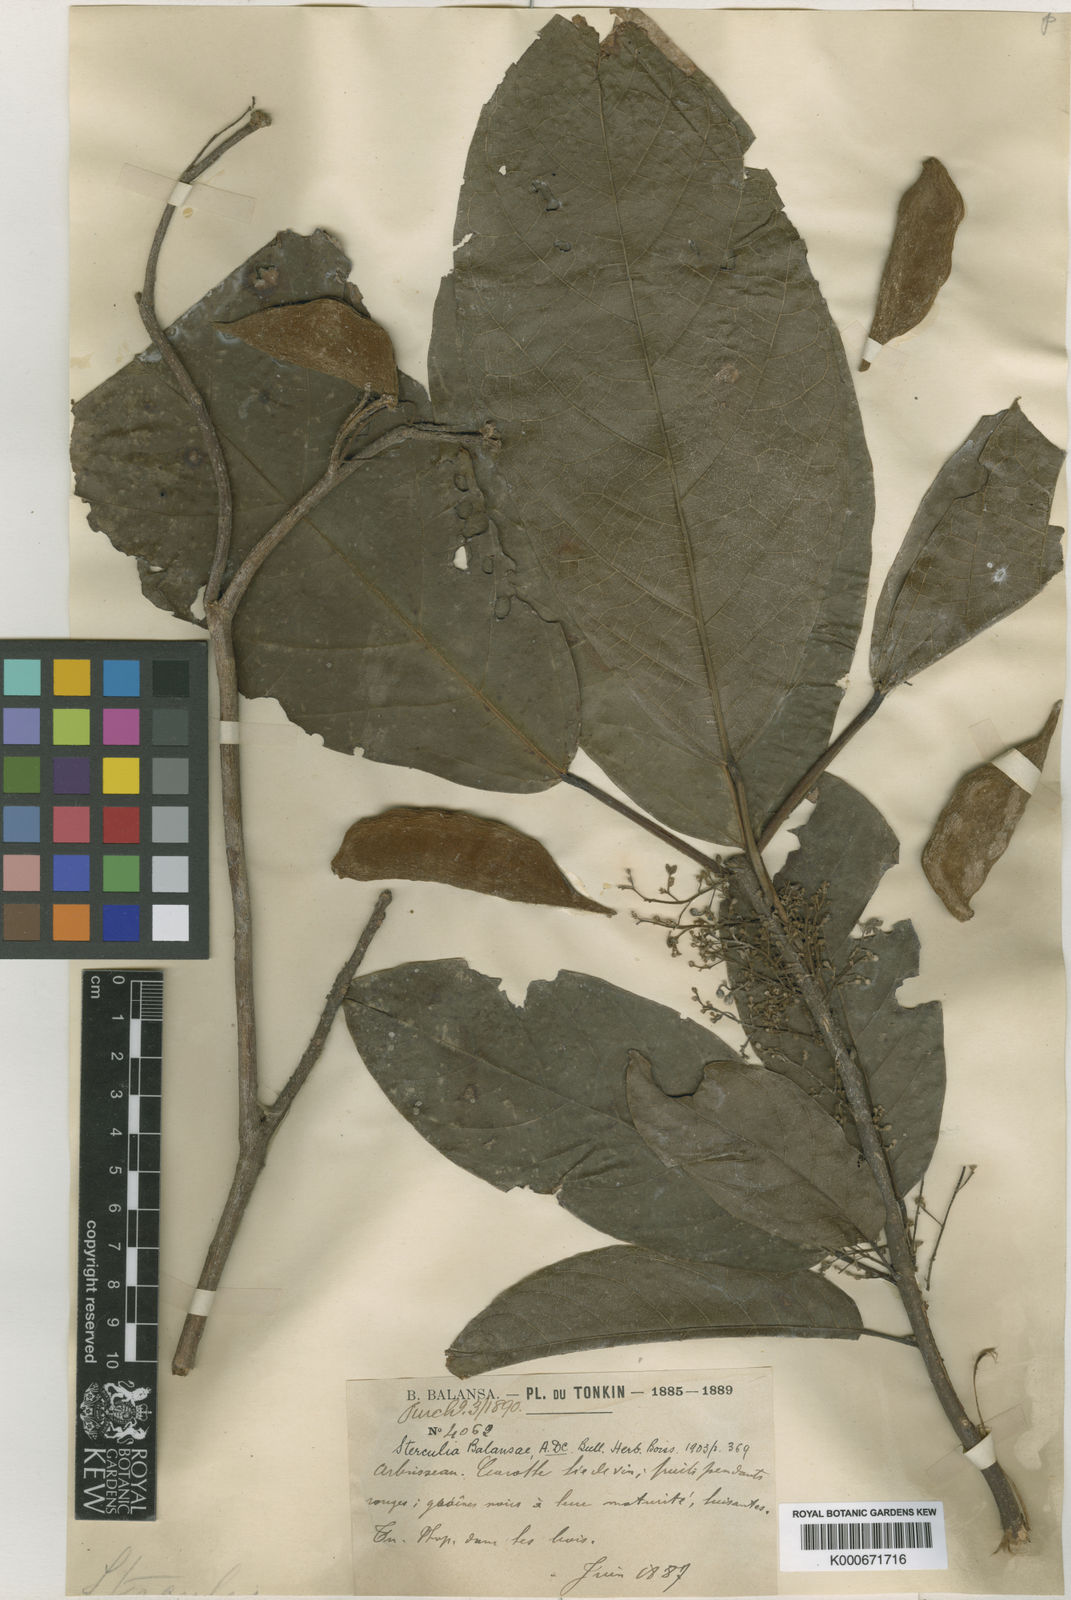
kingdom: Plantae
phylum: Tracheophyta
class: Magnoliopsida
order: Malvales
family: Malvaceae
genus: Sterculia
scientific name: Sterculia lanceolata
